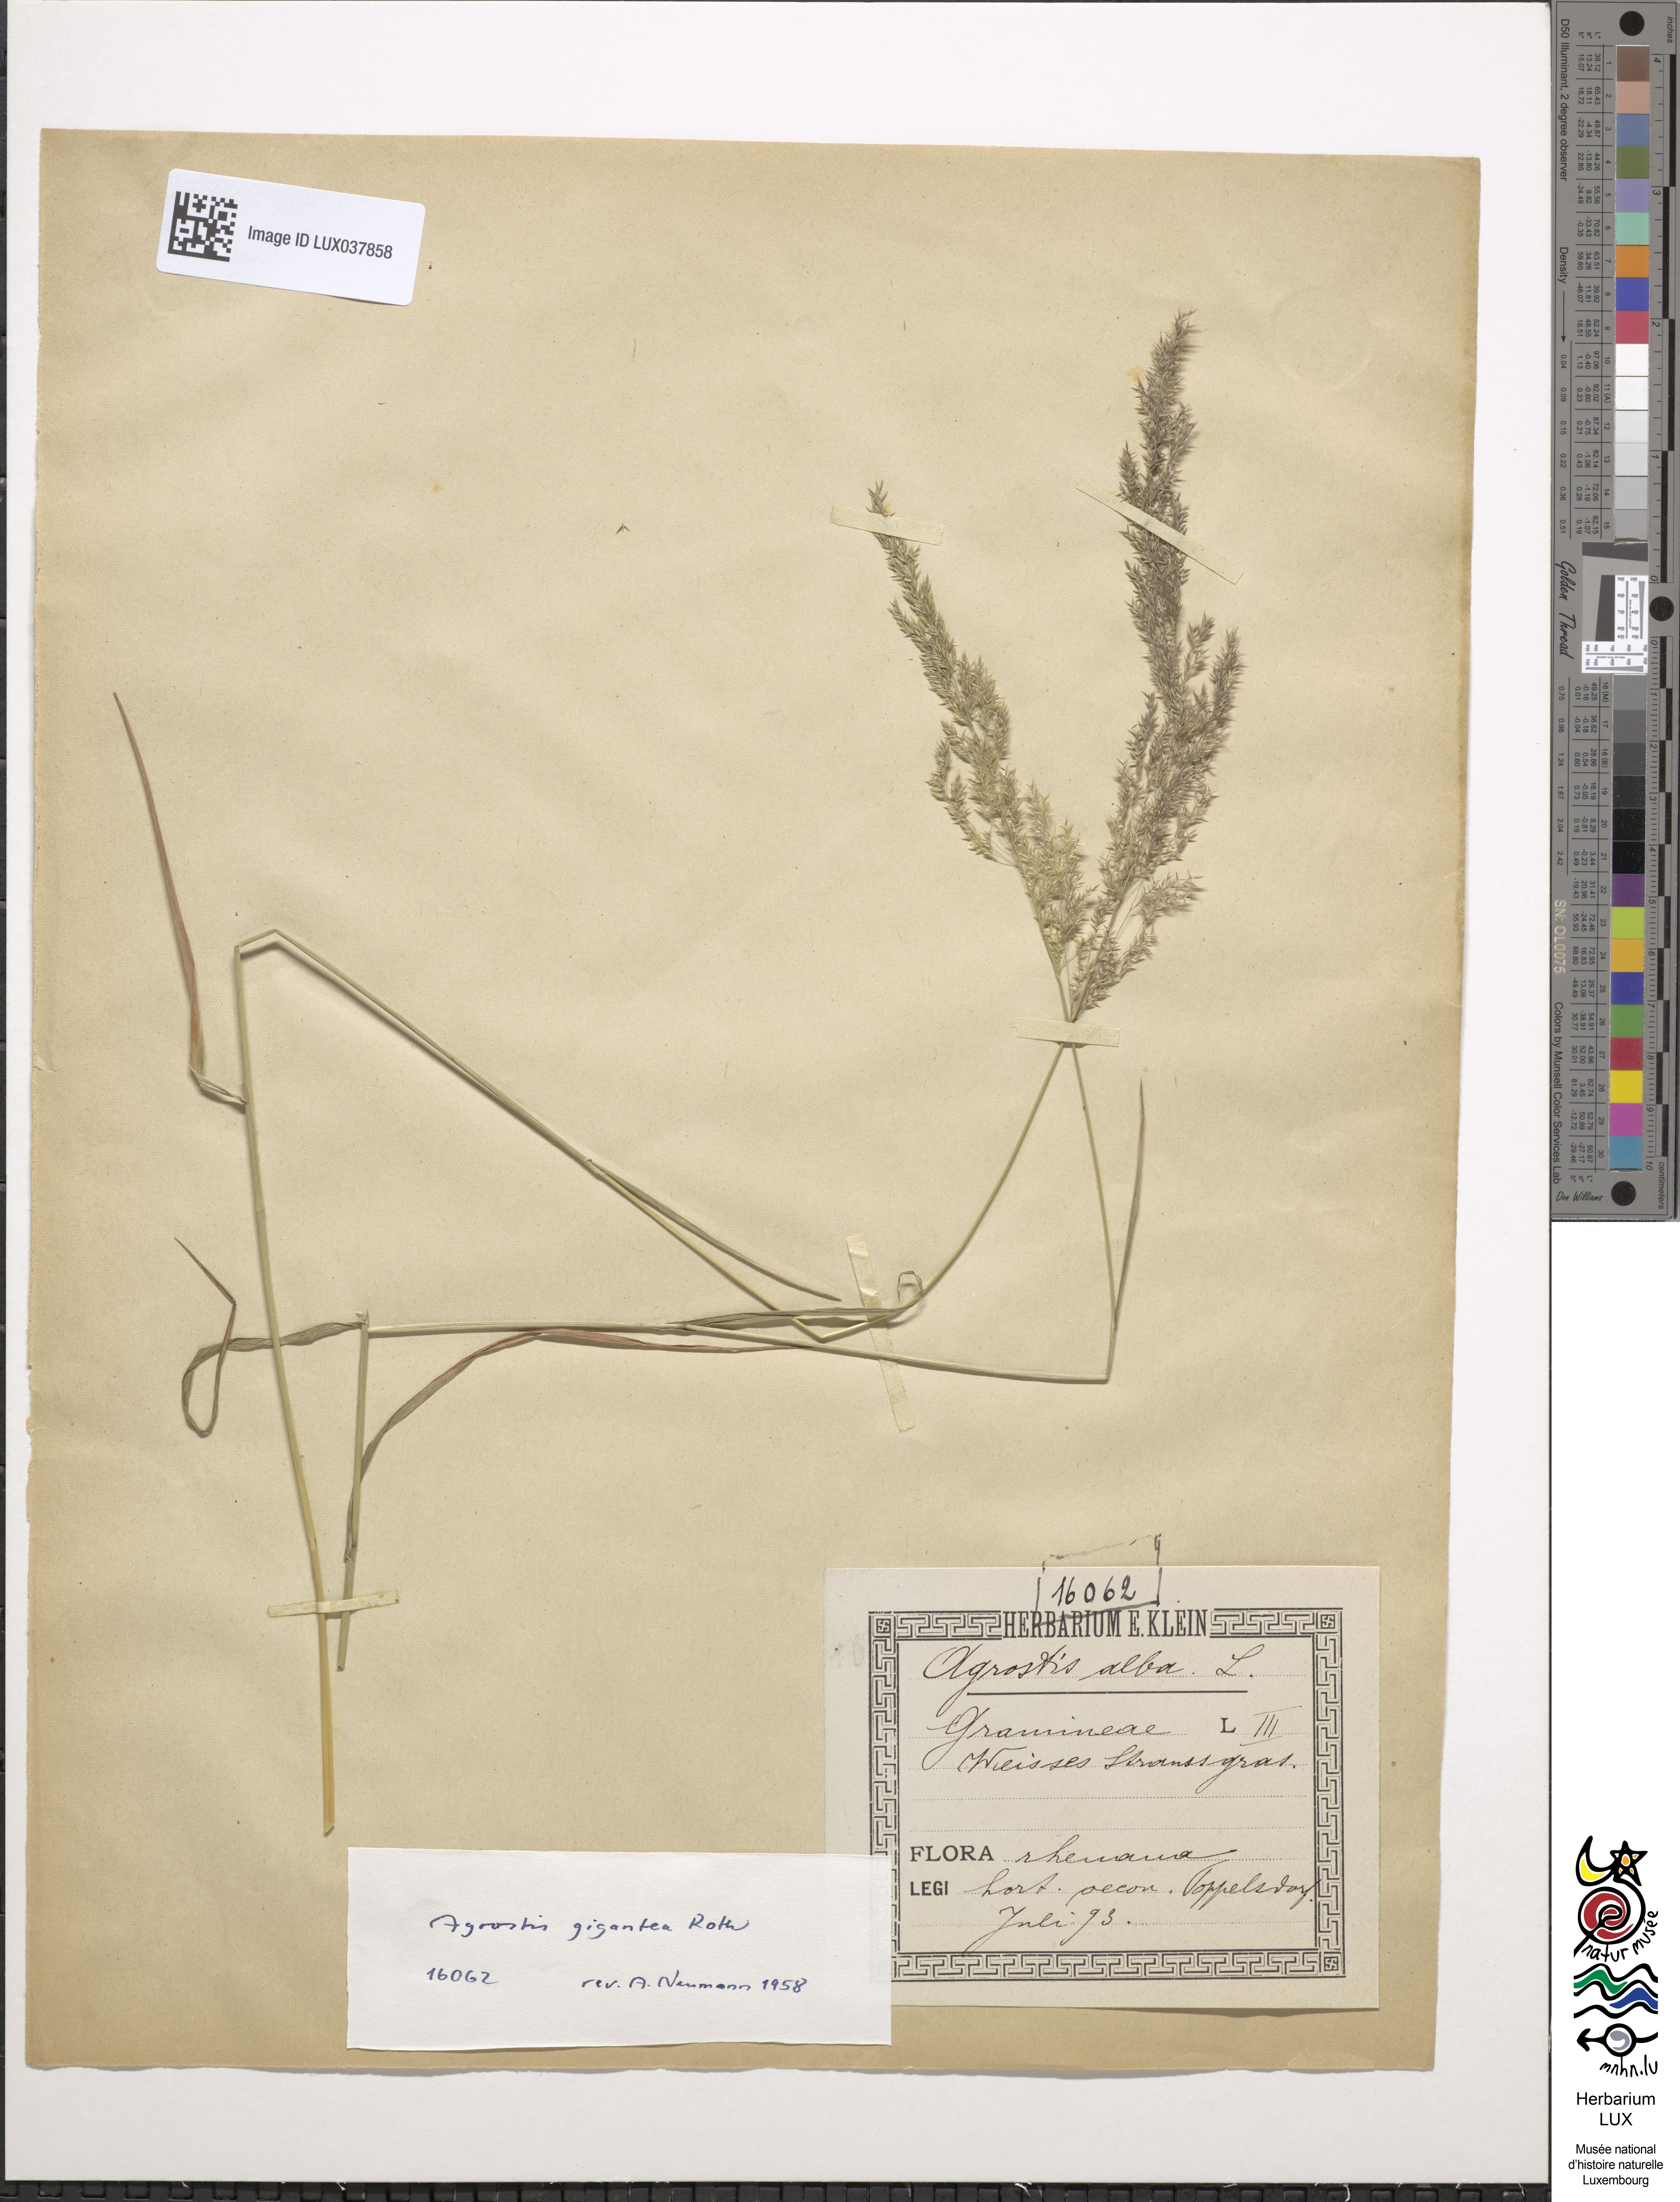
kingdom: Plantae
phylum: Tracheophyta
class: Liliopsida
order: Poales
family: Poaceae
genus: Agrostis
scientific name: Agrostis gigantea
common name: Black bent
